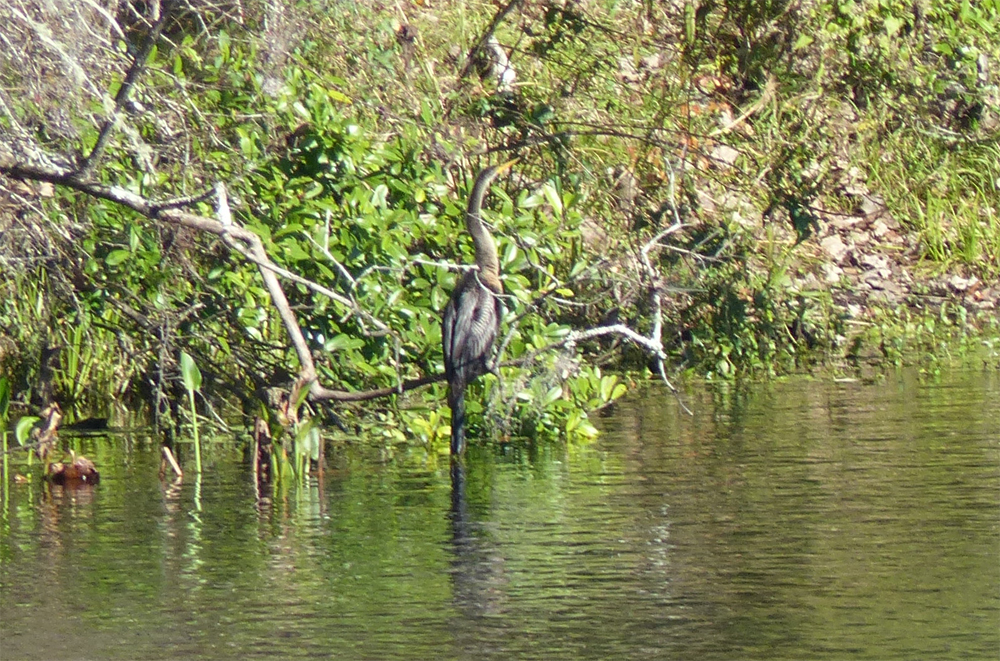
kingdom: Animalia
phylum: Chordata
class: Aves
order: Suliformes
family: Anhingidae
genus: Anhinga
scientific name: Anhinga anhinga
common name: Anhinga
